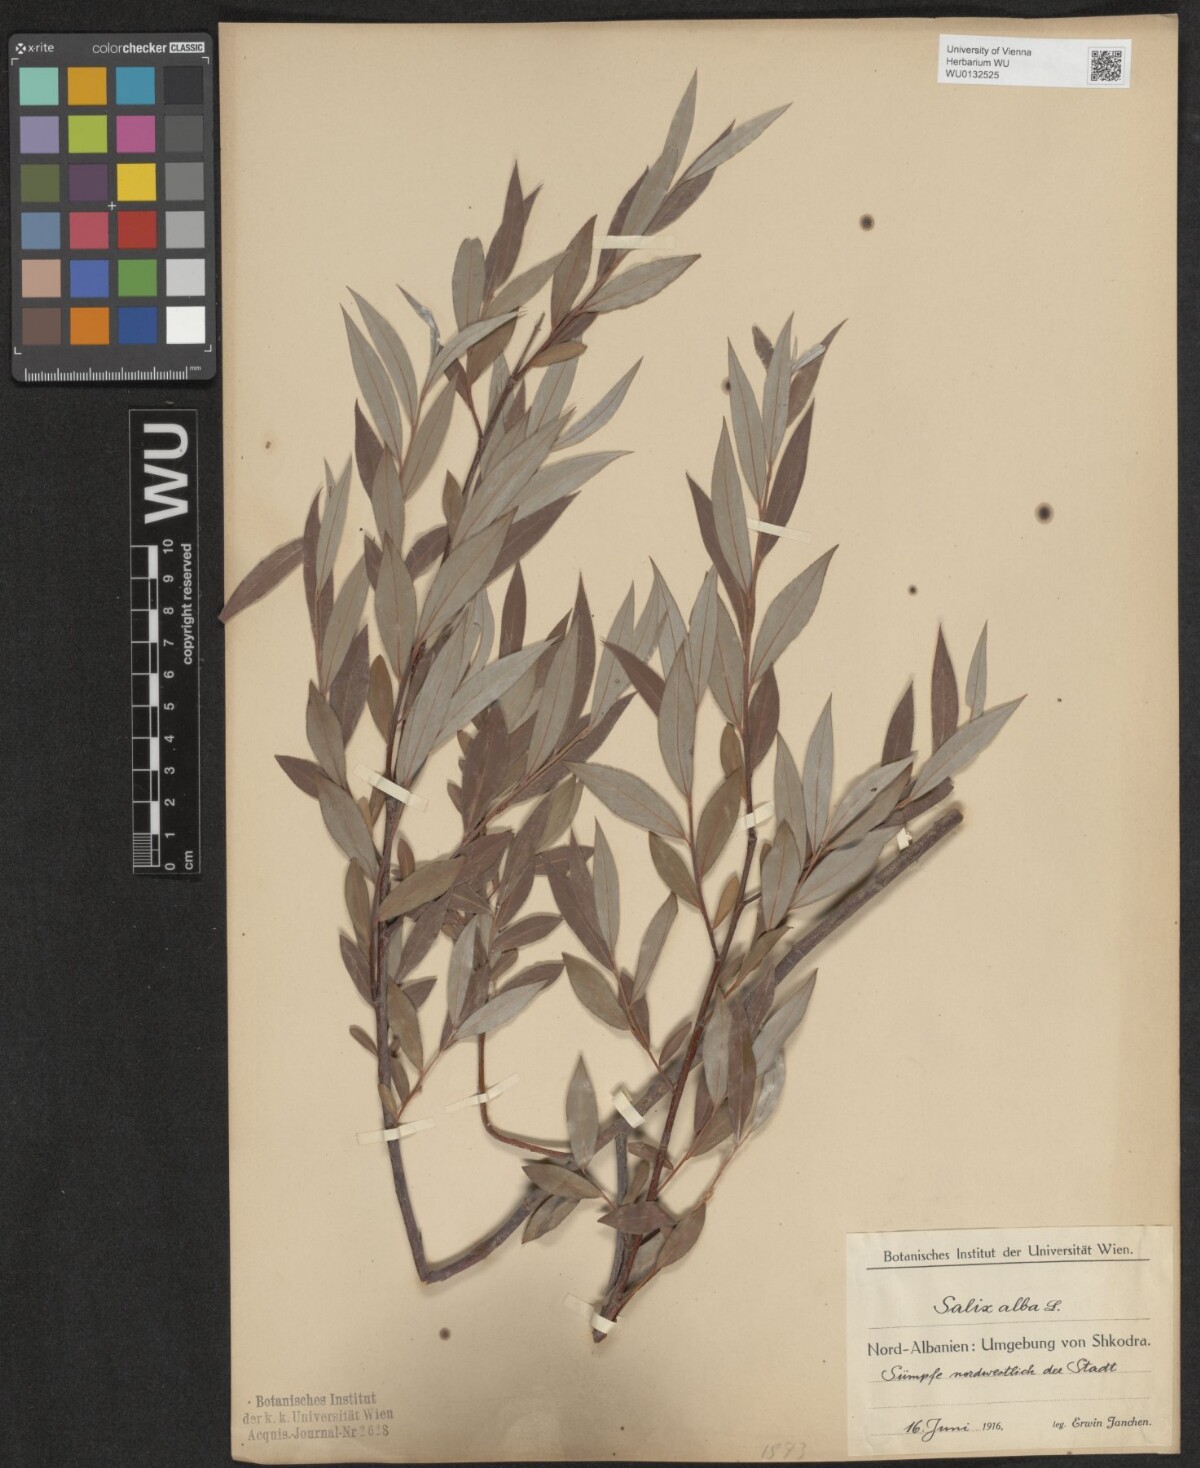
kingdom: Plantae
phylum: Tracheophyta
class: Magnoliopsida
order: Malpighiales
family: Salicaceae
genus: Salix
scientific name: Salix alba
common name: White willow
